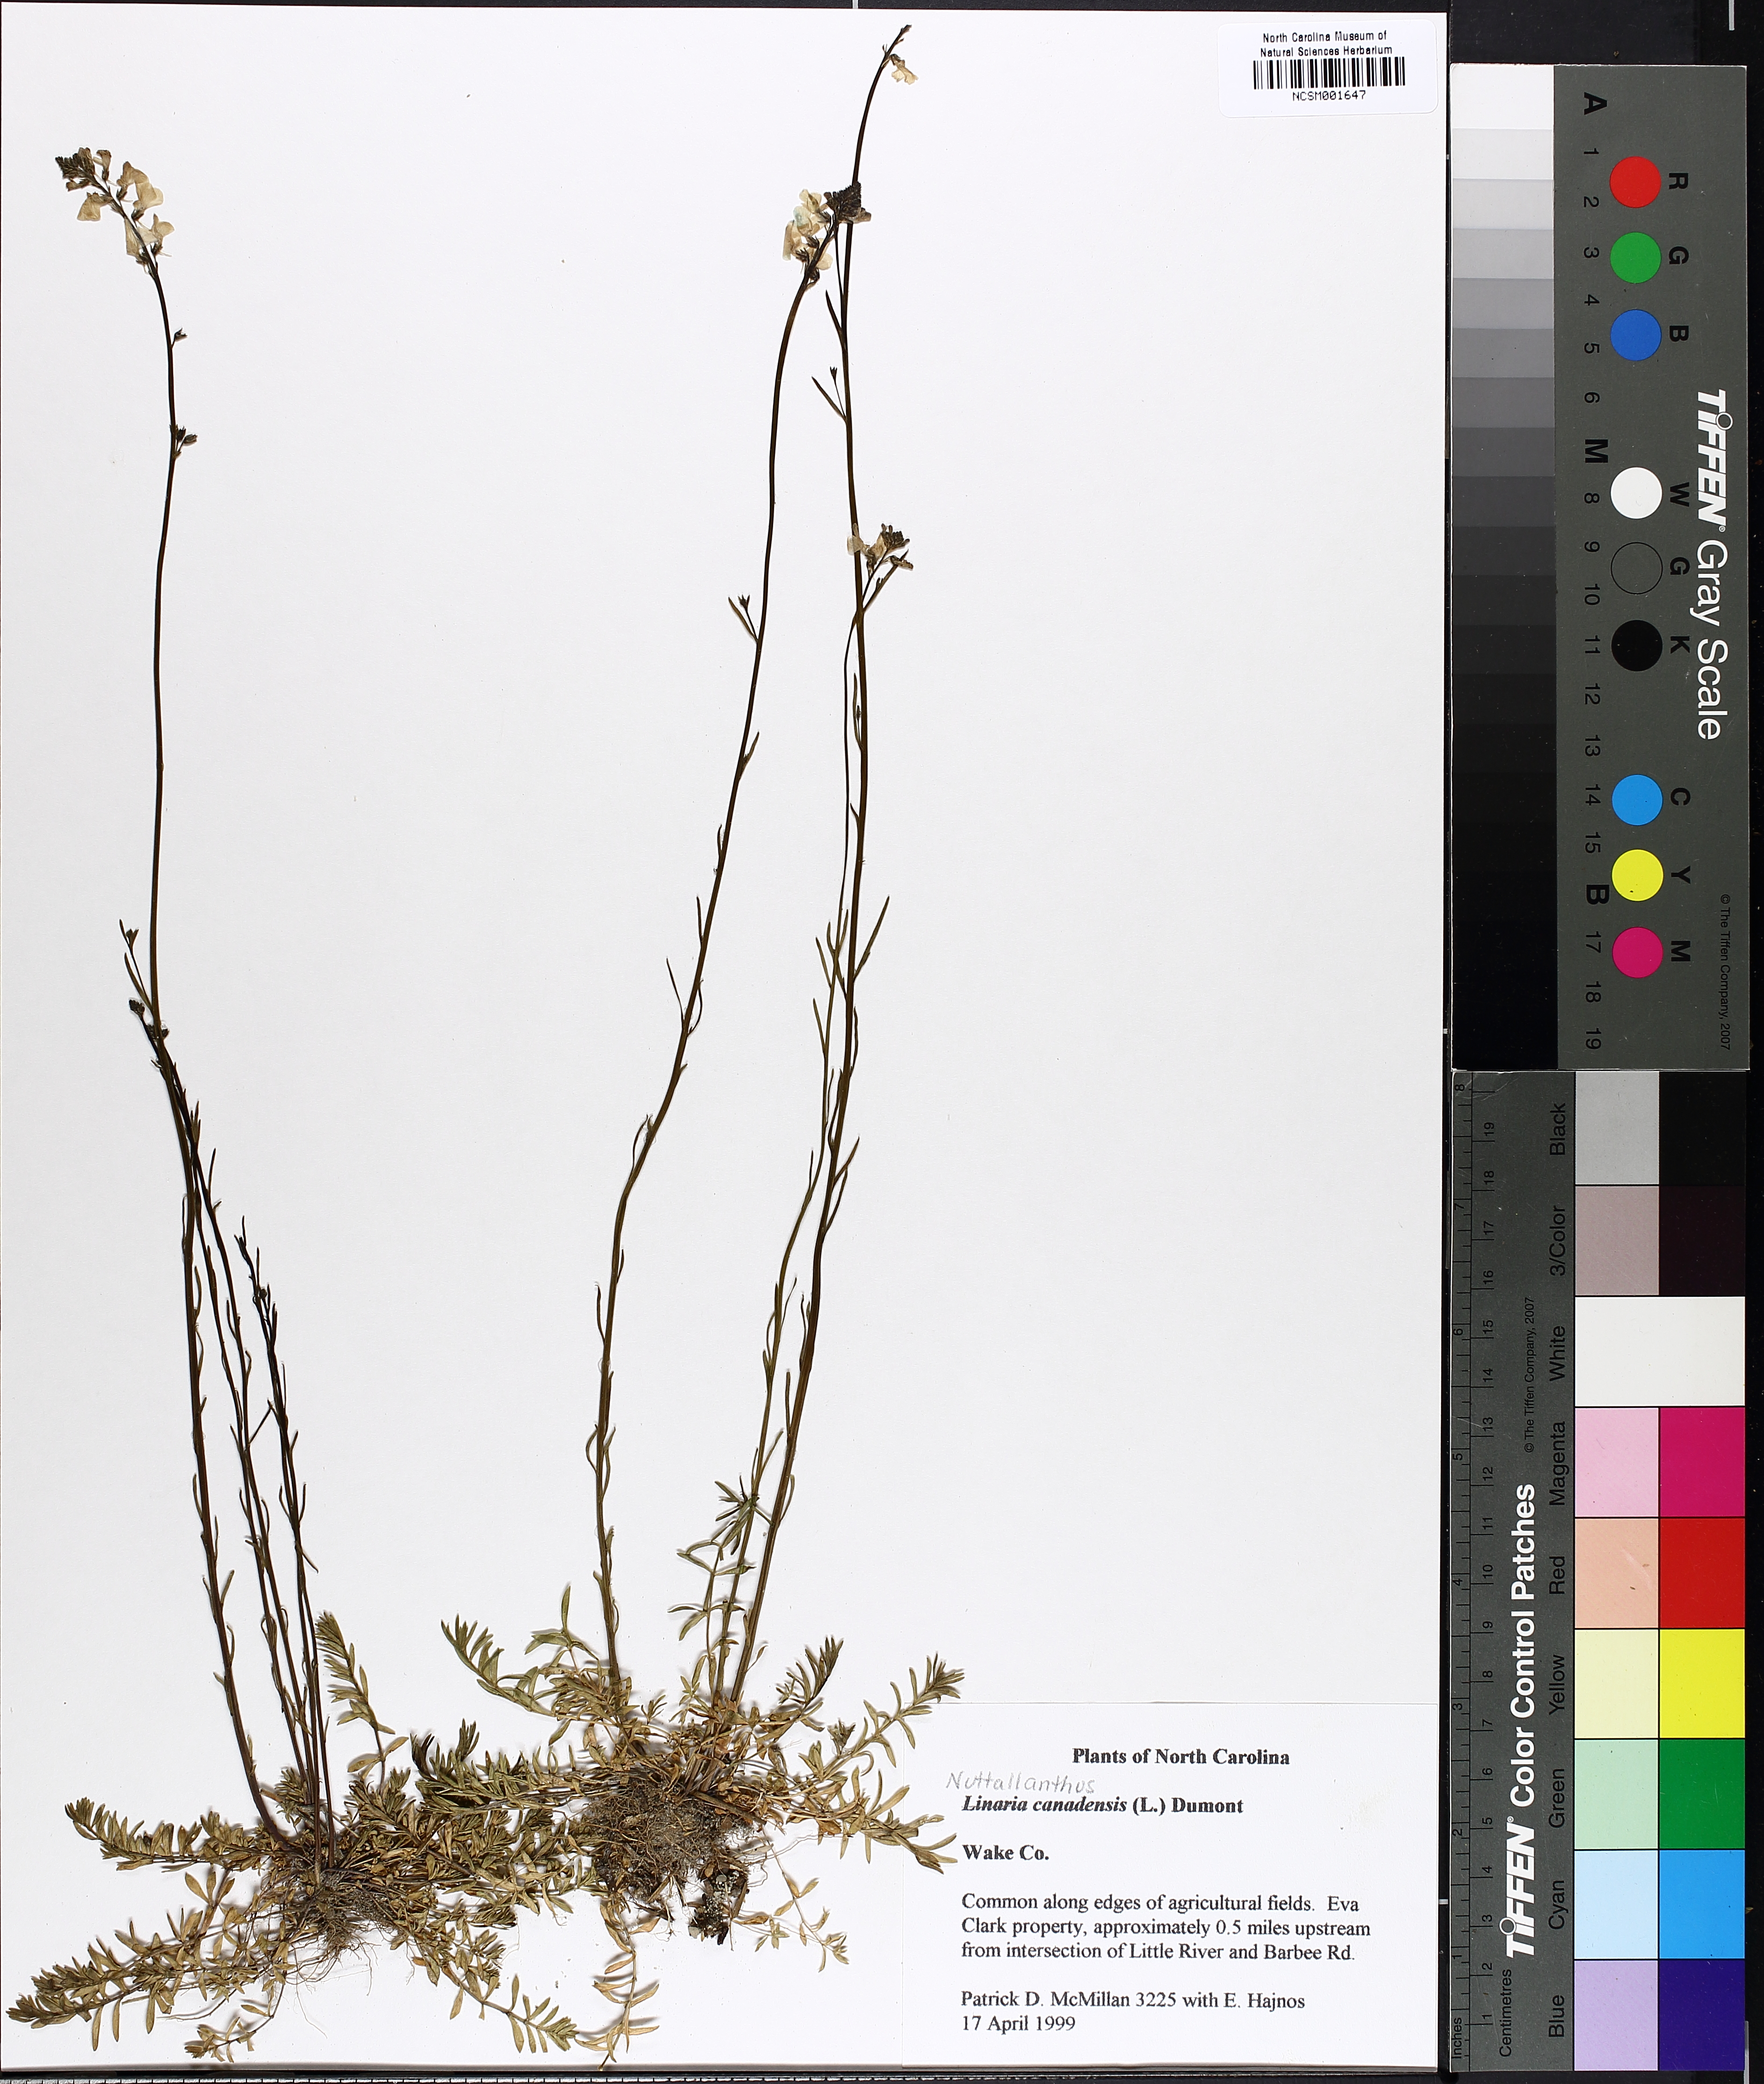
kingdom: Plantae
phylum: Tracheophyta
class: Magnoliopsida
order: Lamiales
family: Plantaginaceae
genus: Nuttallanthus
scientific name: Nuttallanthus canadensis
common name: Blue toadflax
